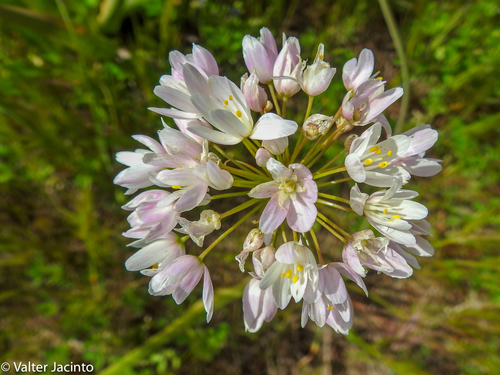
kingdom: Plantae
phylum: Tracheophyta
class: Liliopsida
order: Asparagales
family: Amaryllidaceae
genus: Allium
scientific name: Allium roseum
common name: Rosy garlic
